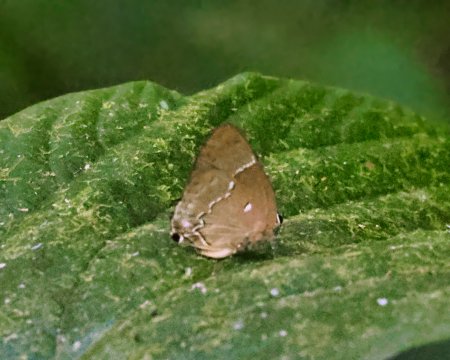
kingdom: Animalia
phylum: Arthropoda
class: Insecta
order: Lepidoptera
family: Lycaenidae
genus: Thecla
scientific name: Thecla mutina
